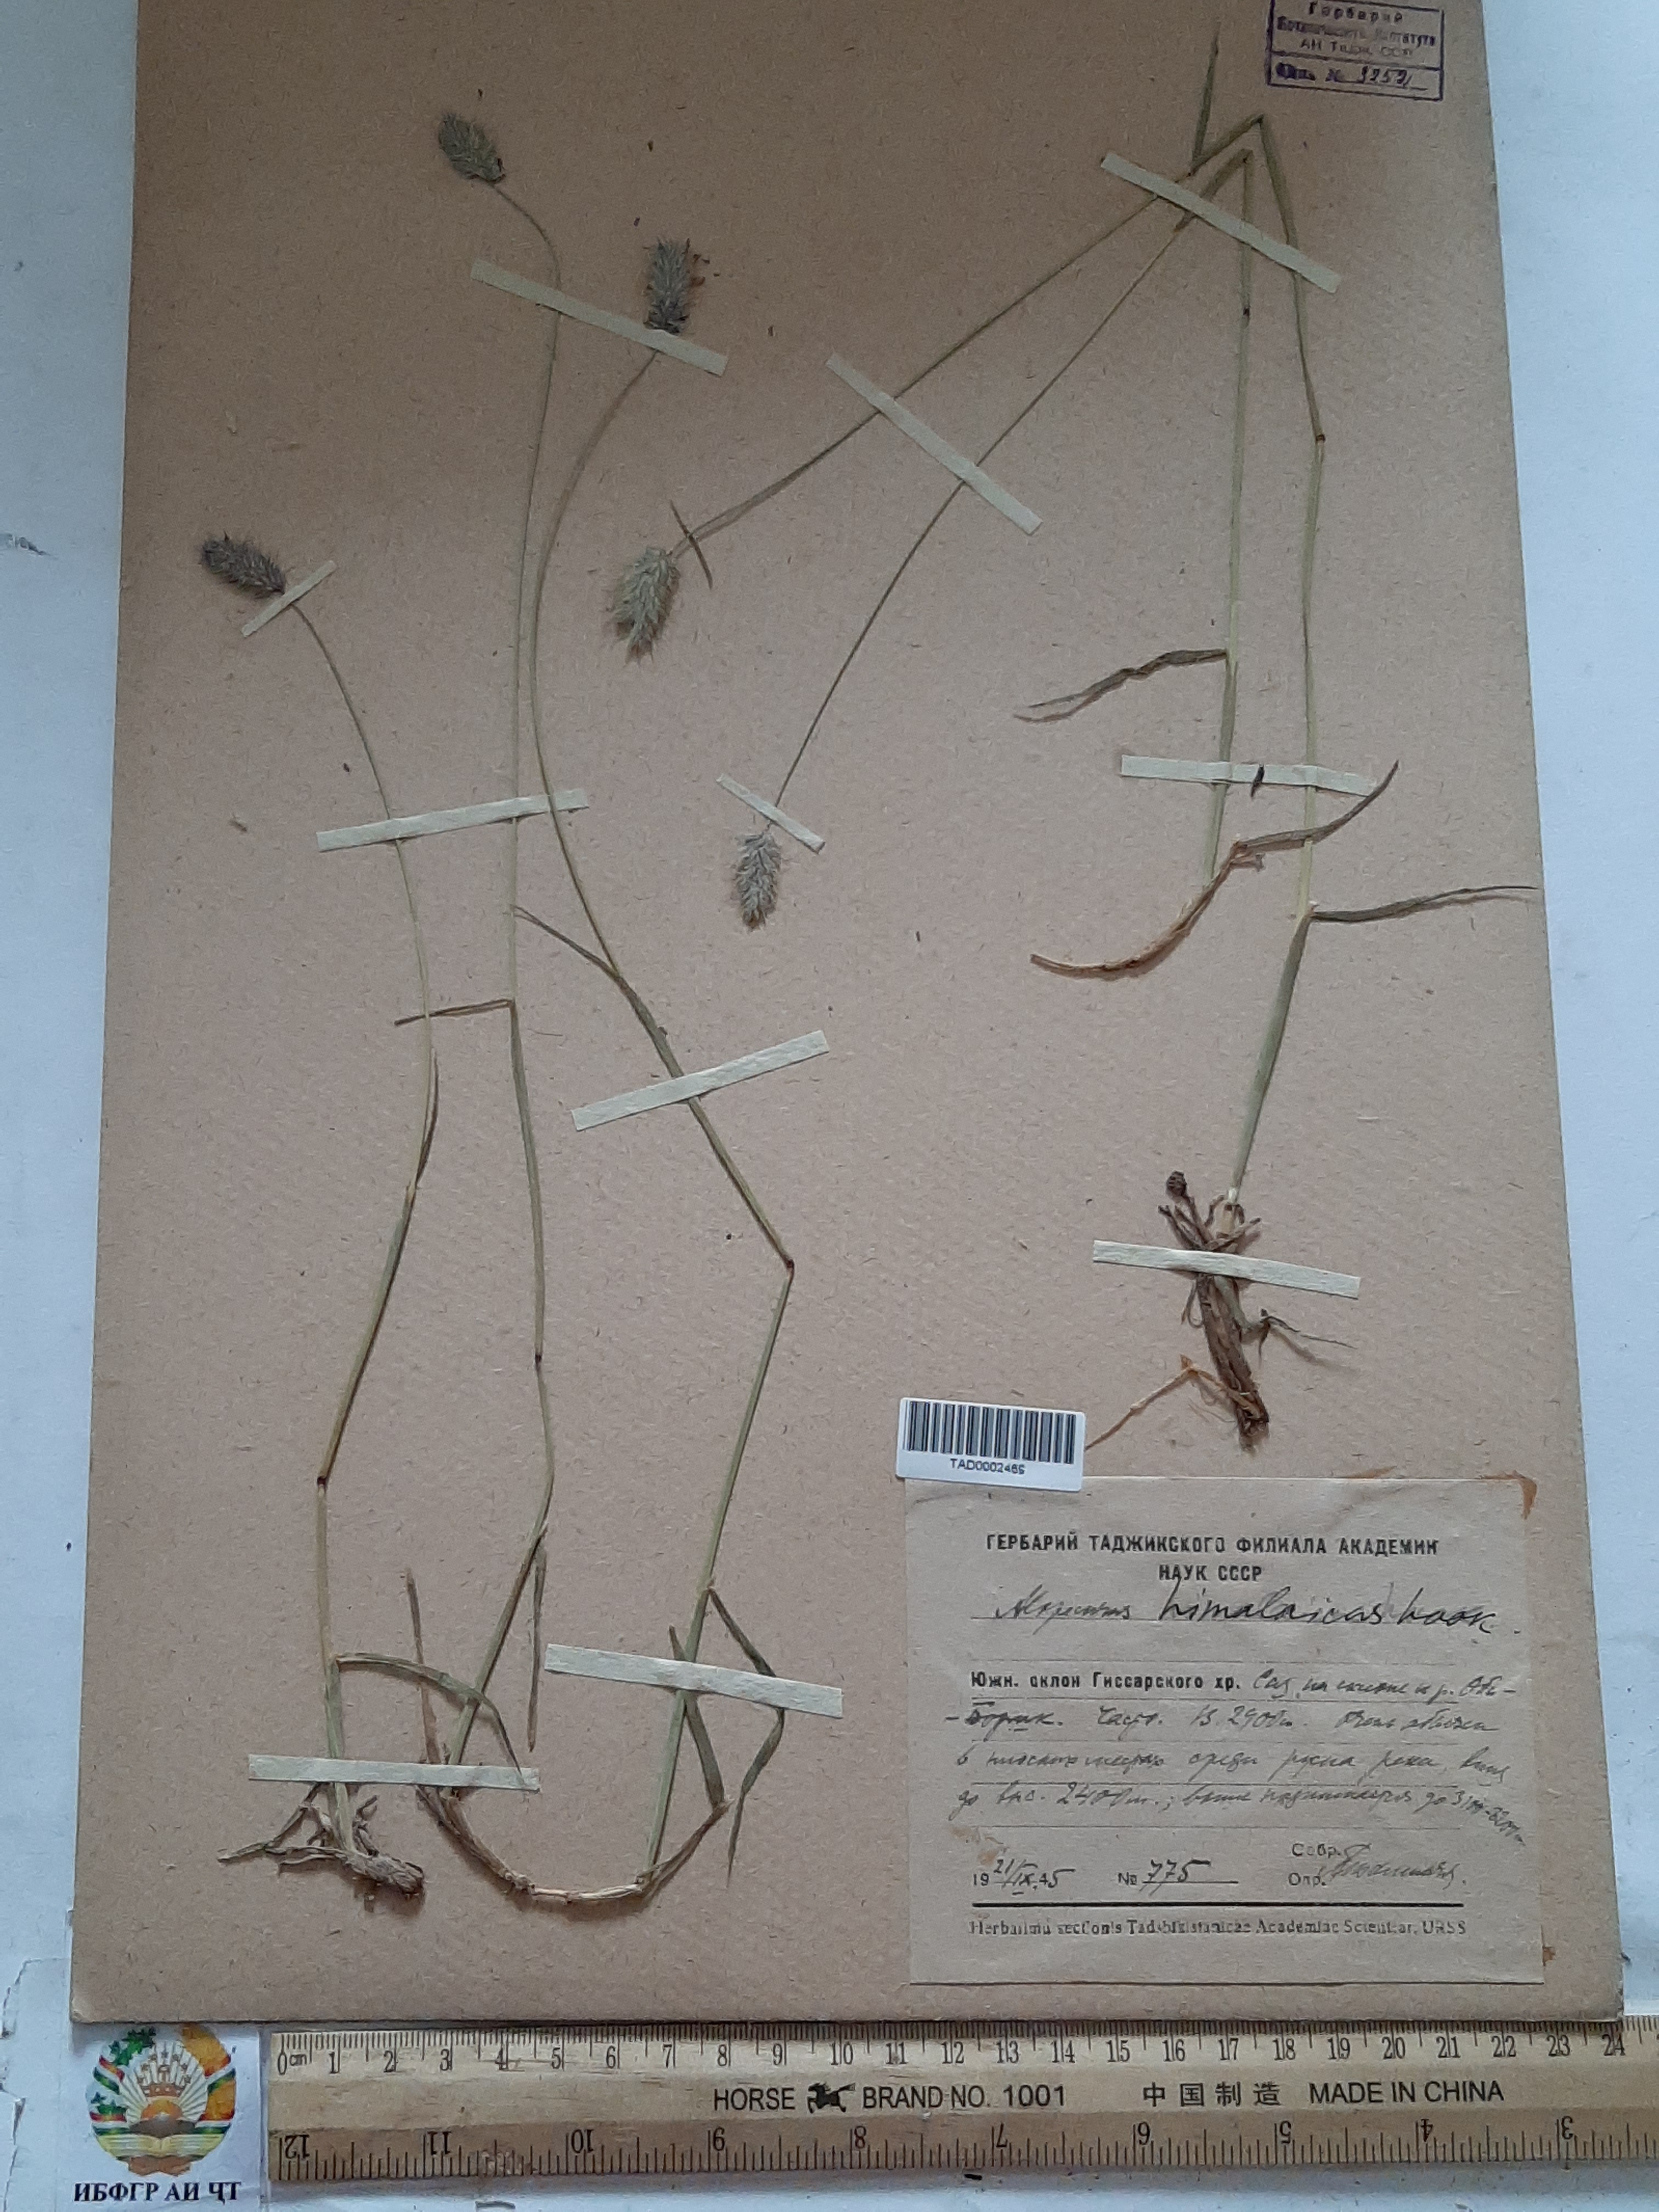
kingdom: Plantae
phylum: Tracheophyta
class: Liliopsida
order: Poales
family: Poaceae
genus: Alopecurus
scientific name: Alopecurus himalaicus
